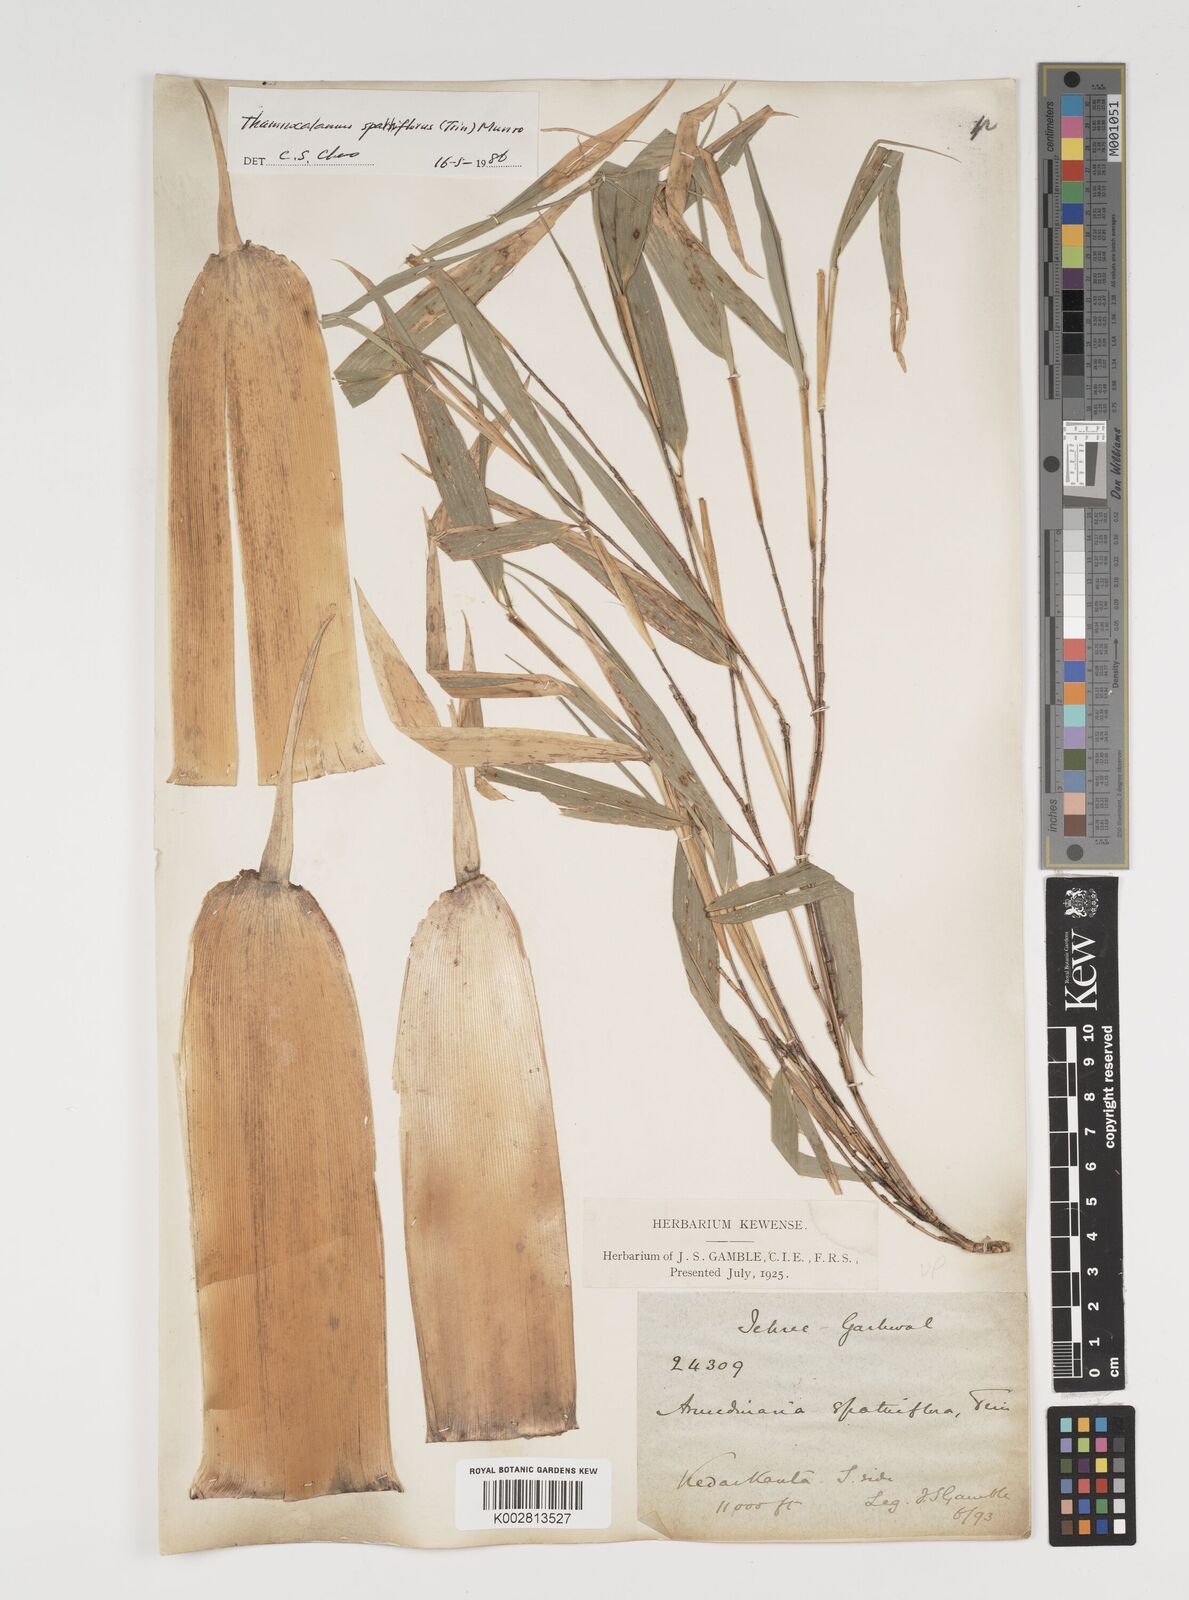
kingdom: Plantae
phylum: Tracheophyta
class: Liliopsida
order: Poales
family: Poaceae
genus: Thamnocalamus
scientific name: Thamnocalamus spathiflorus
